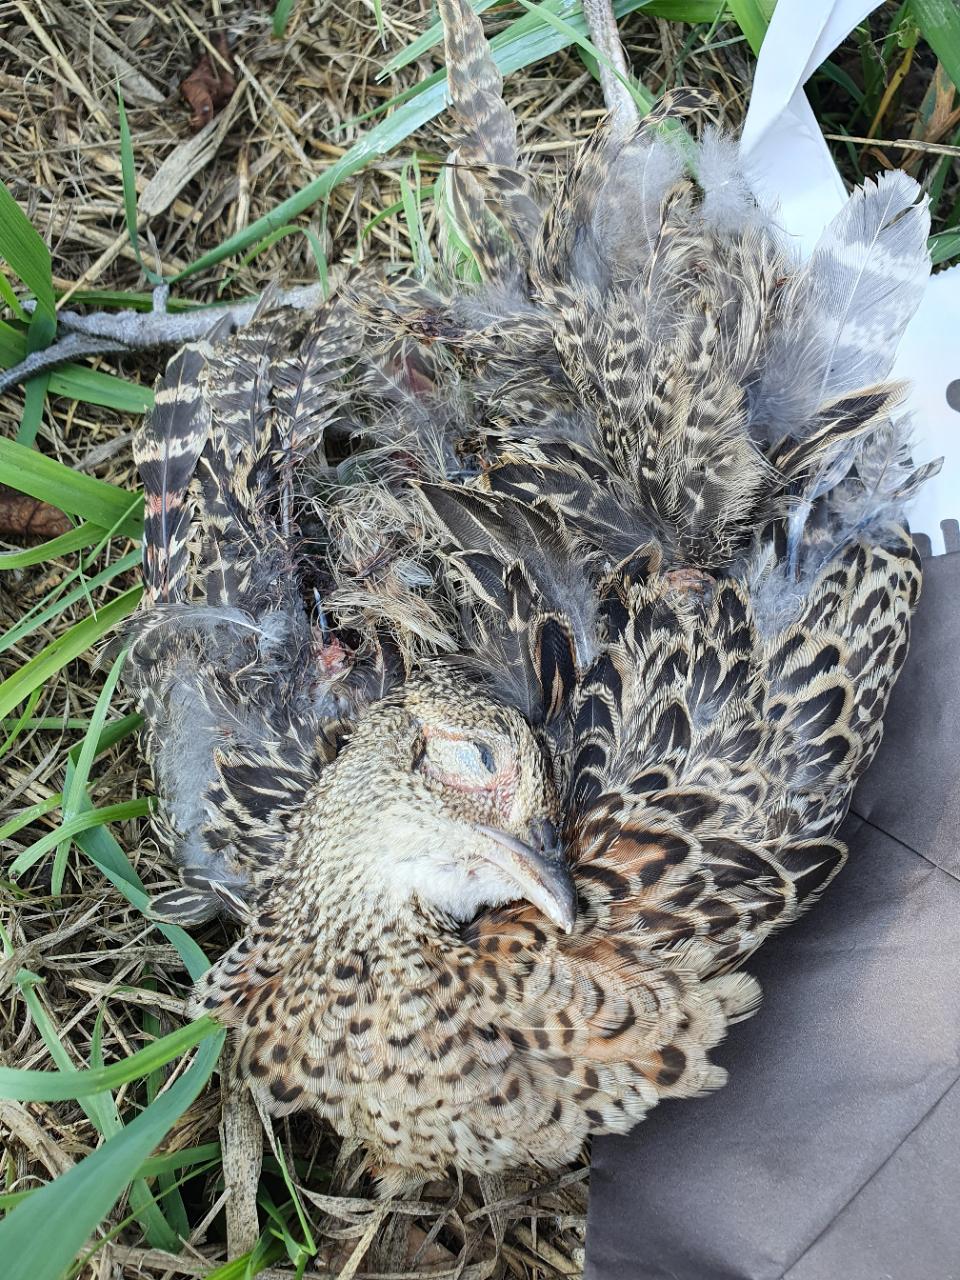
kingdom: Animalia
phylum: Chordata
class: Aves
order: Galliformes
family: Phasianidae
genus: Phasianus
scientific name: Phasianus colchicus
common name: Common pheasant
